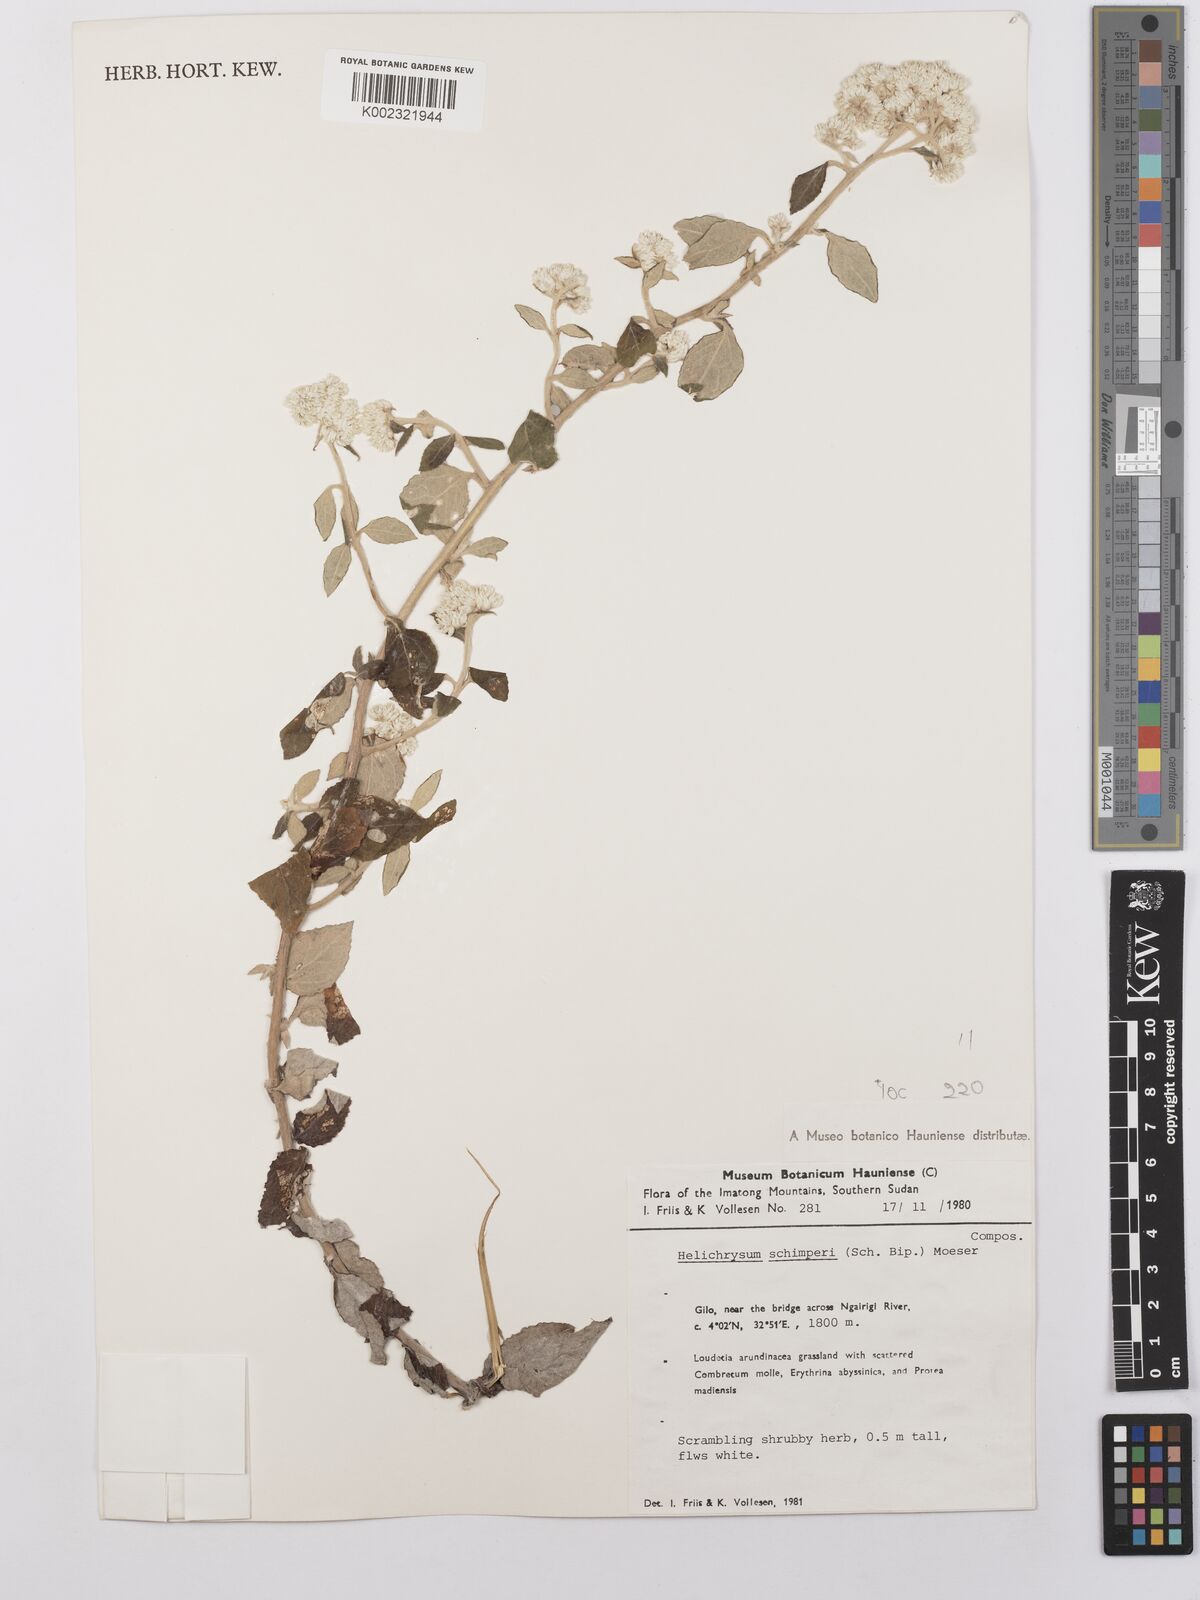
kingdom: Plantae
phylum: Tracheophyta
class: Magnoliopsida
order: Asterales
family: Asteraceae
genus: Helichrysum
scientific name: Helichrysum schimperi
